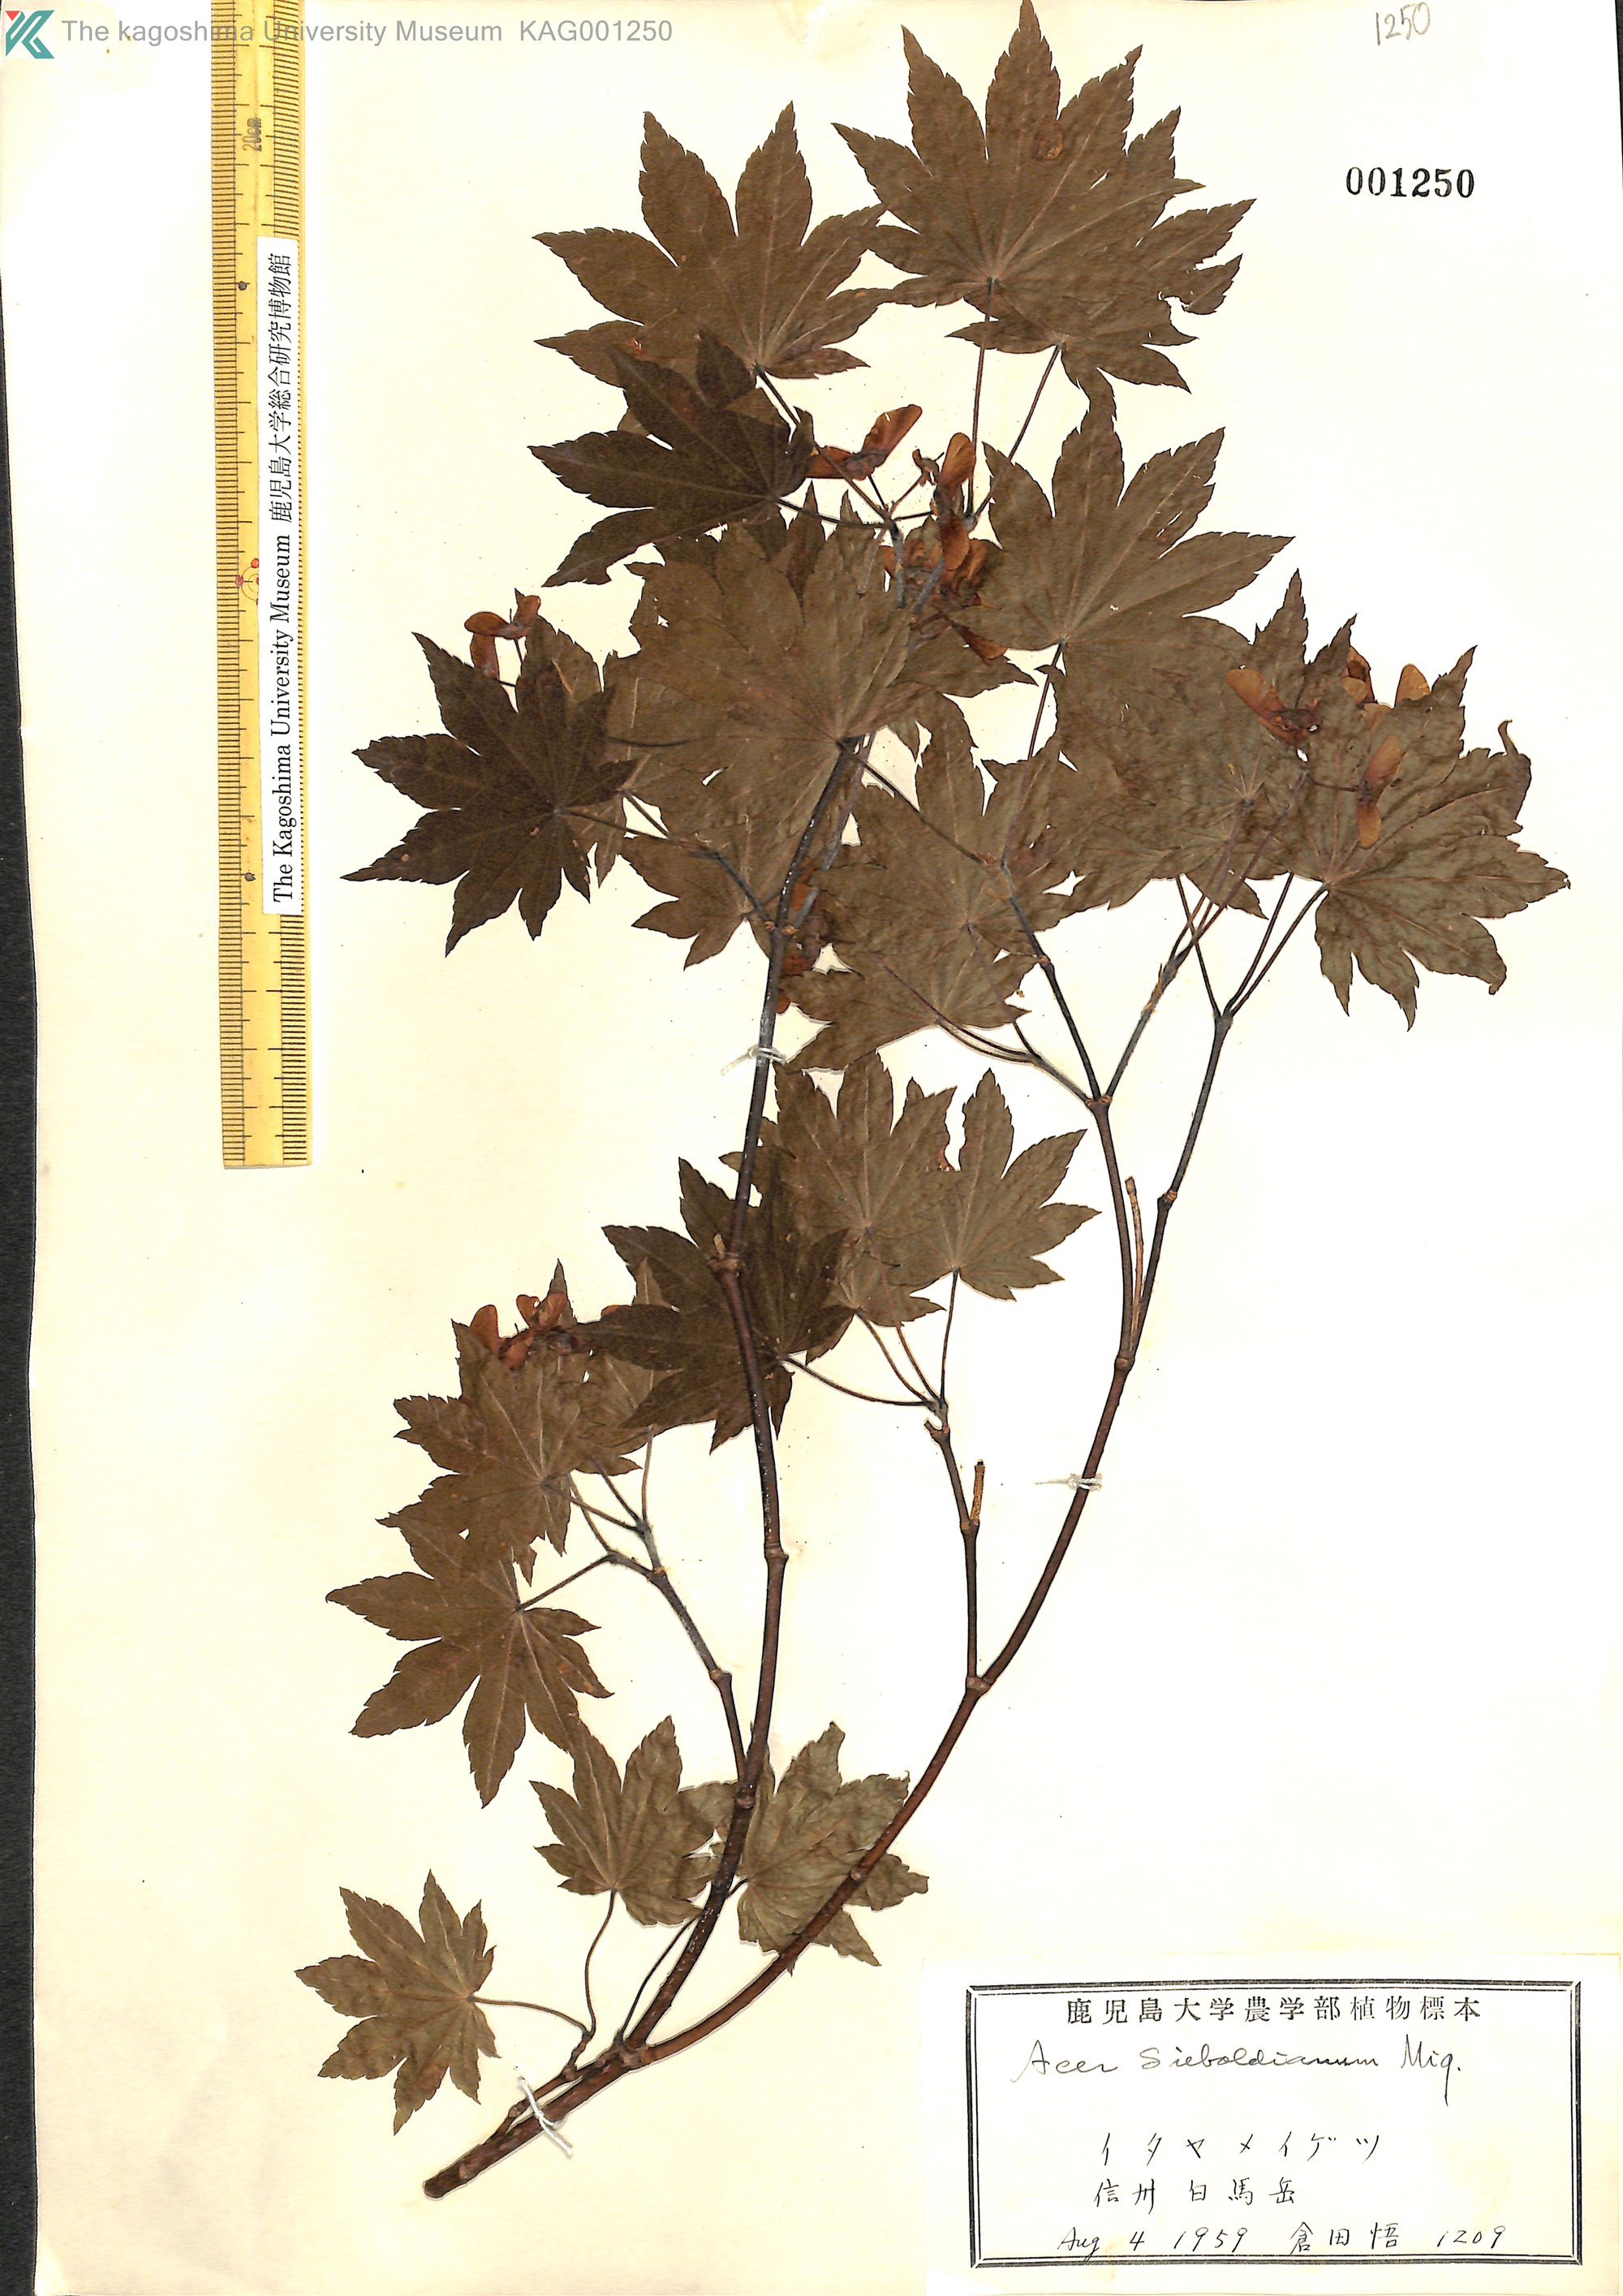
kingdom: Plantae
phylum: Tracheophyta
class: Magnoliopsida
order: Sapindales
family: Sapindaceae
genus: Acer
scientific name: Acer sieboldianum
